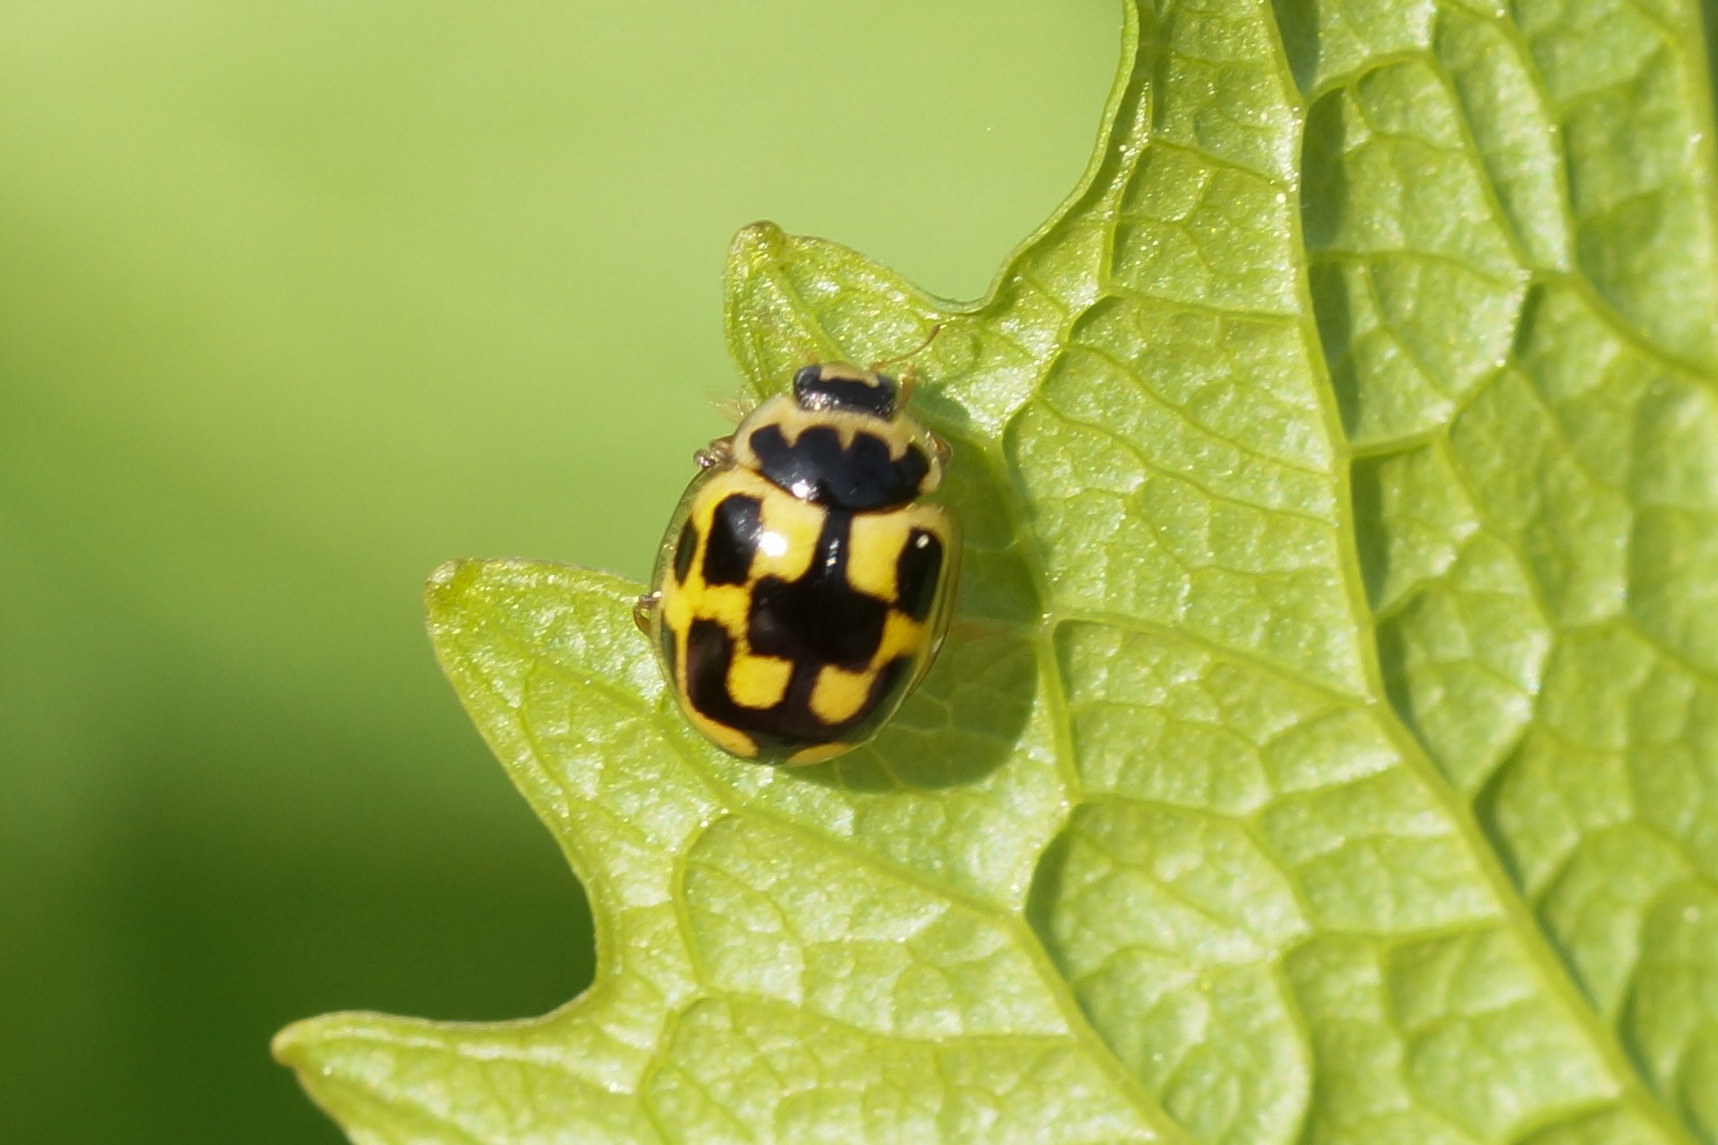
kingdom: Animalia
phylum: Arthropoda
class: Insecta
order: Coleoptera
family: Coccinellidae
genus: Propylaea
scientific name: Propylaea quatuordecimpunctata
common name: Skakbræt
